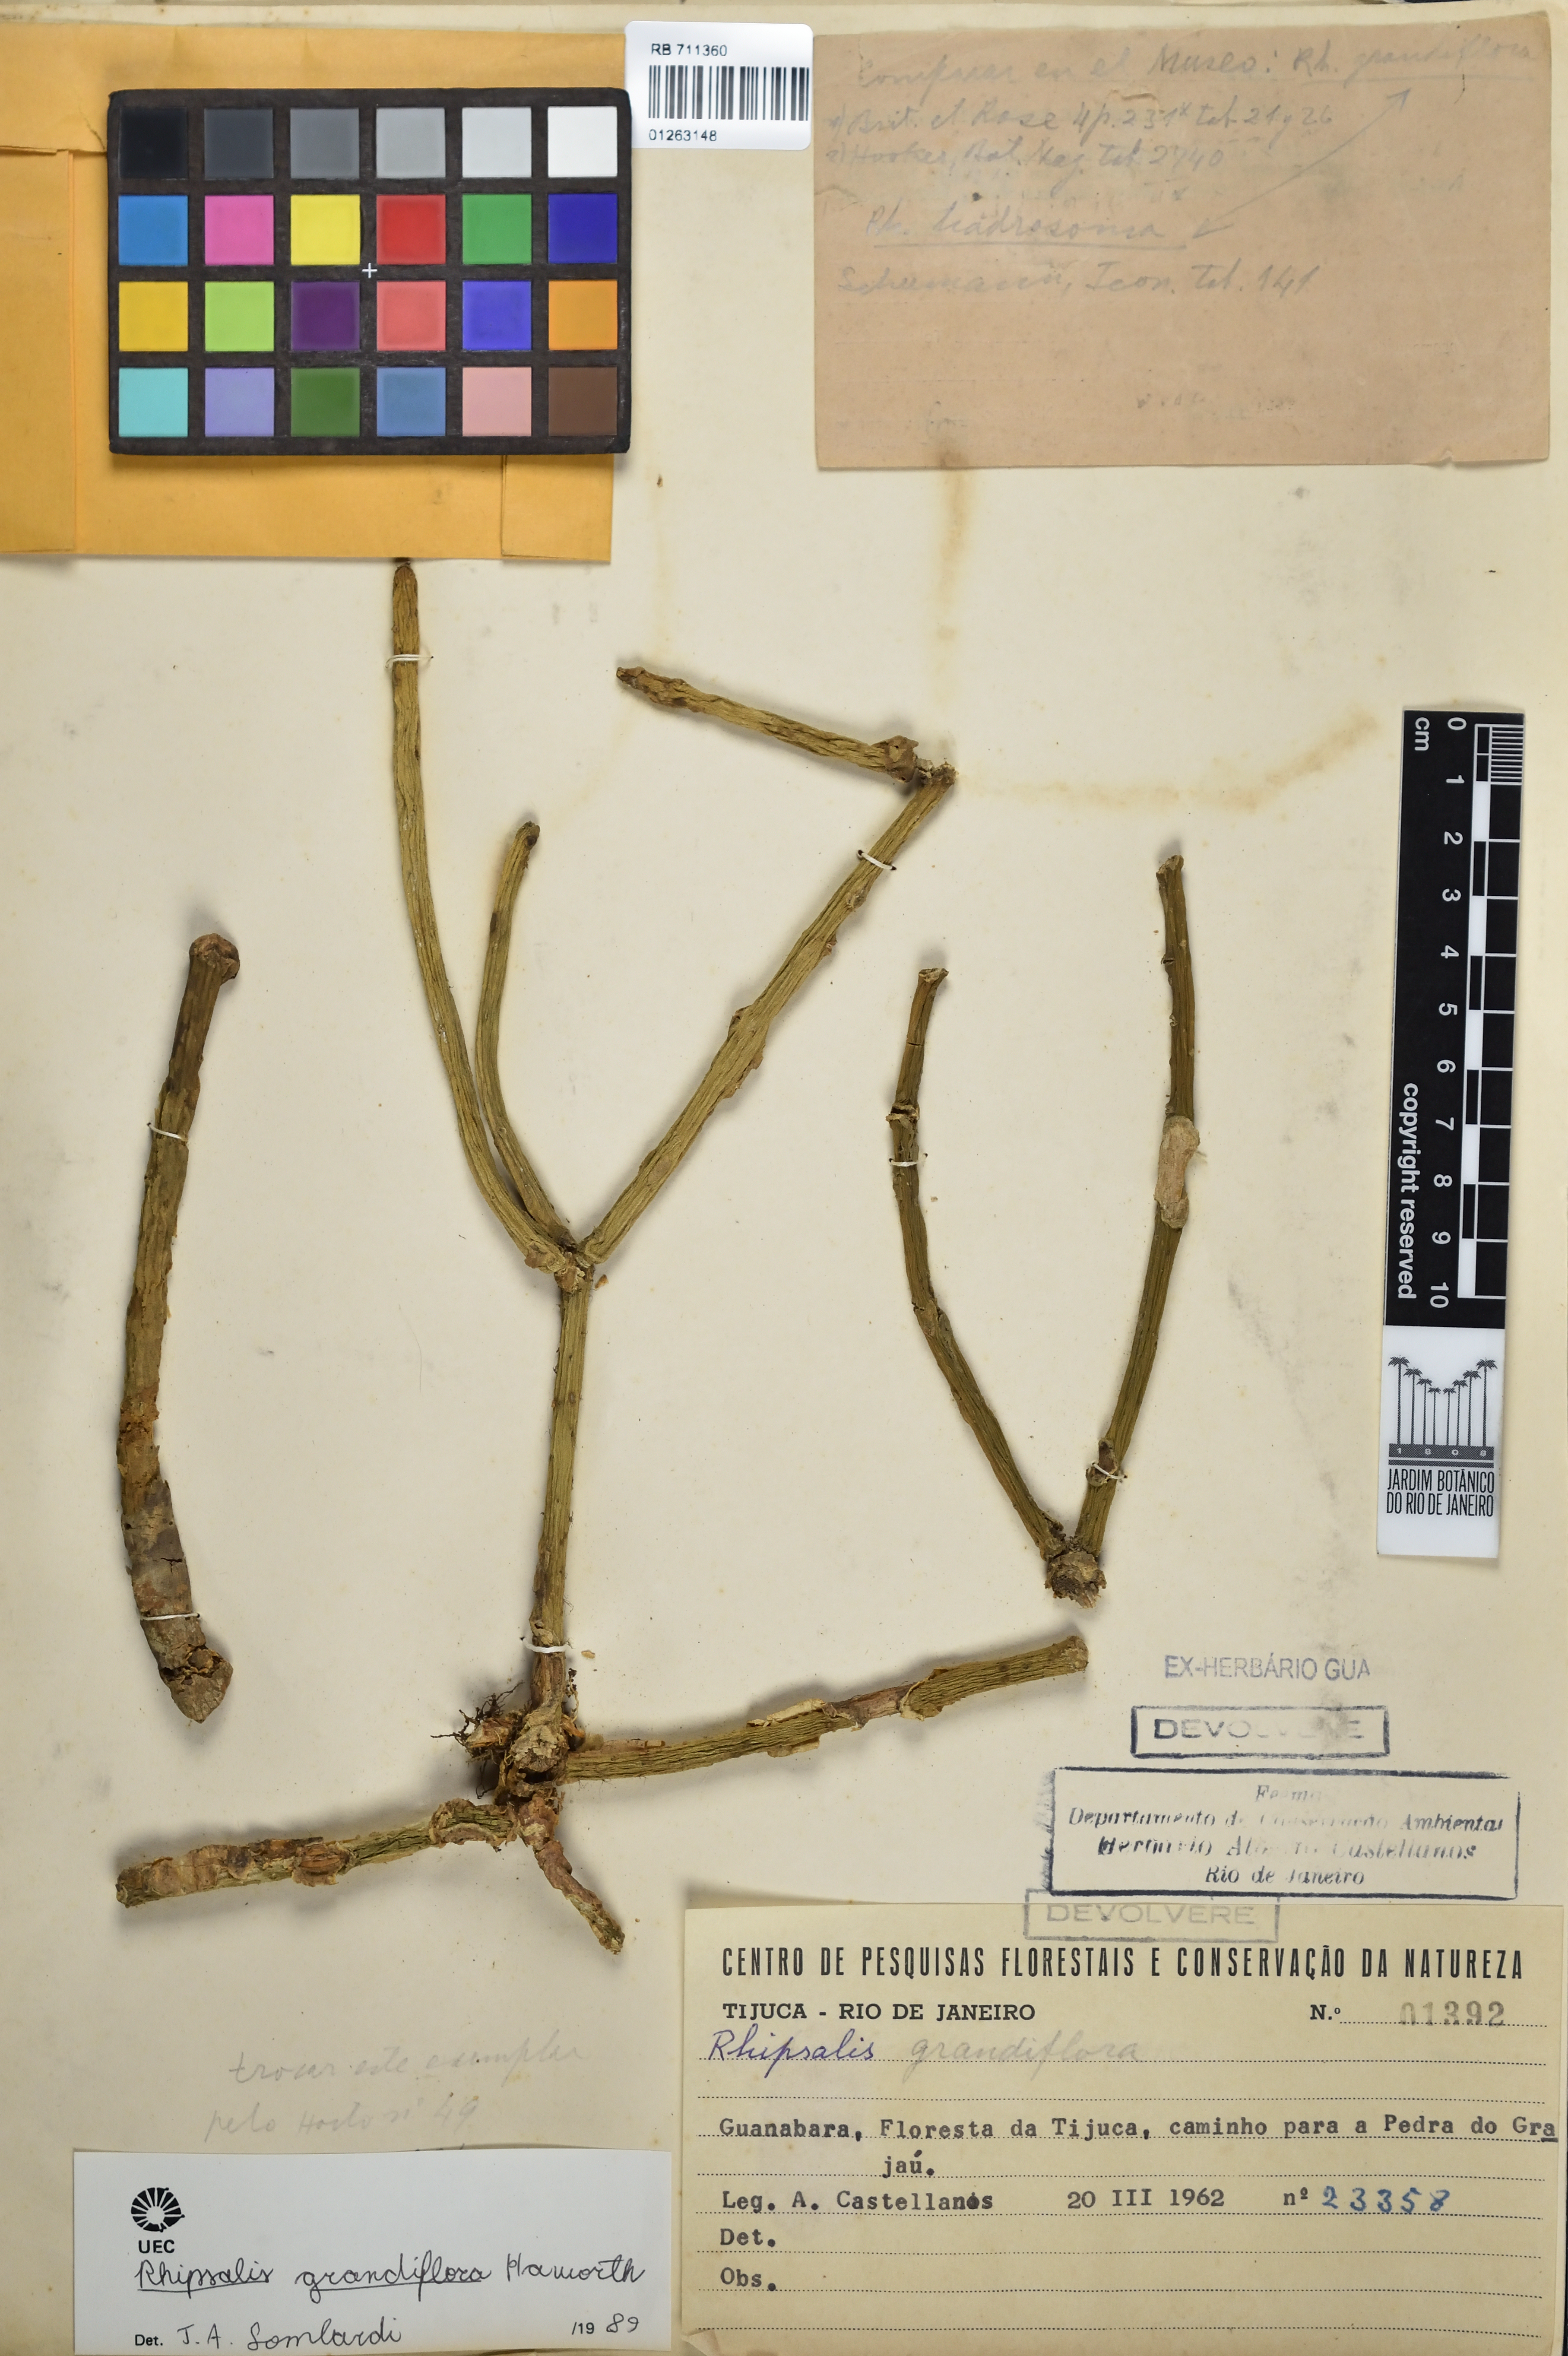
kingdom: Plantae
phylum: Tracheophyta
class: Magnoliopsida
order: Caryophyllales
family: Cactaceae
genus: Rhipsalis
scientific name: Rhipsalis grandiflora
